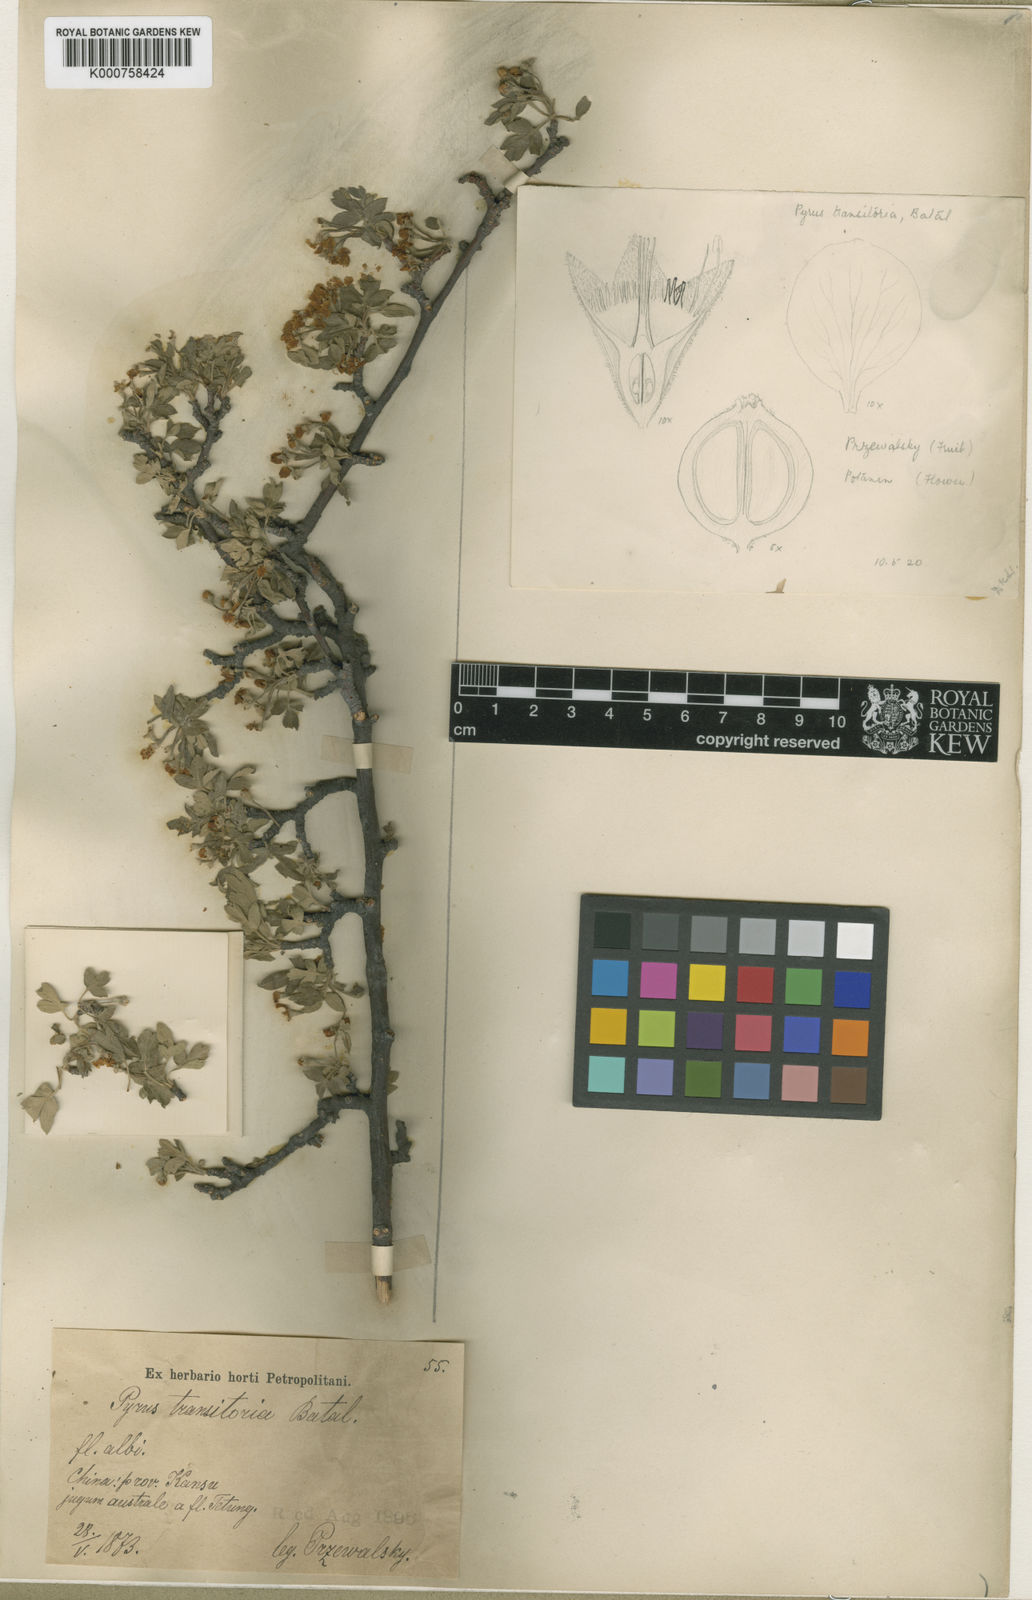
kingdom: Plantae
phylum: Tracheophyta
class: Magnoliopsida
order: Rosales
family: Rosaceae
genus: Malus
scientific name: Malus transitoria
